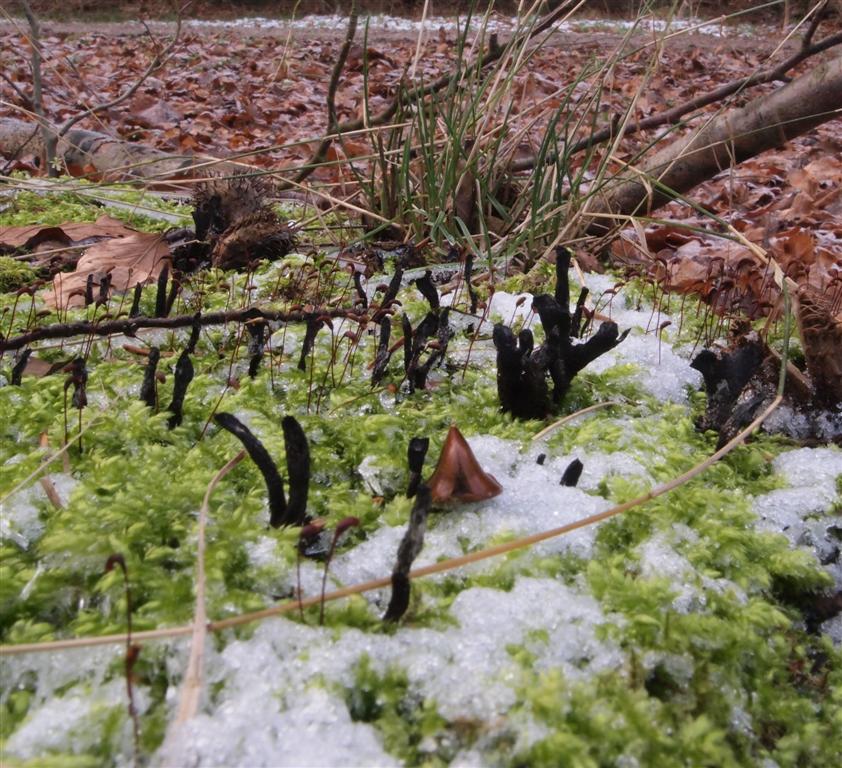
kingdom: Fungi
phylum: Ascomycota
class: Sordariomycetes
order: Xylariales
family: Xylariaceae
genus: Xylaria
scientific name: Xylaria hypoxylon
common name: grenet stødsvamp
